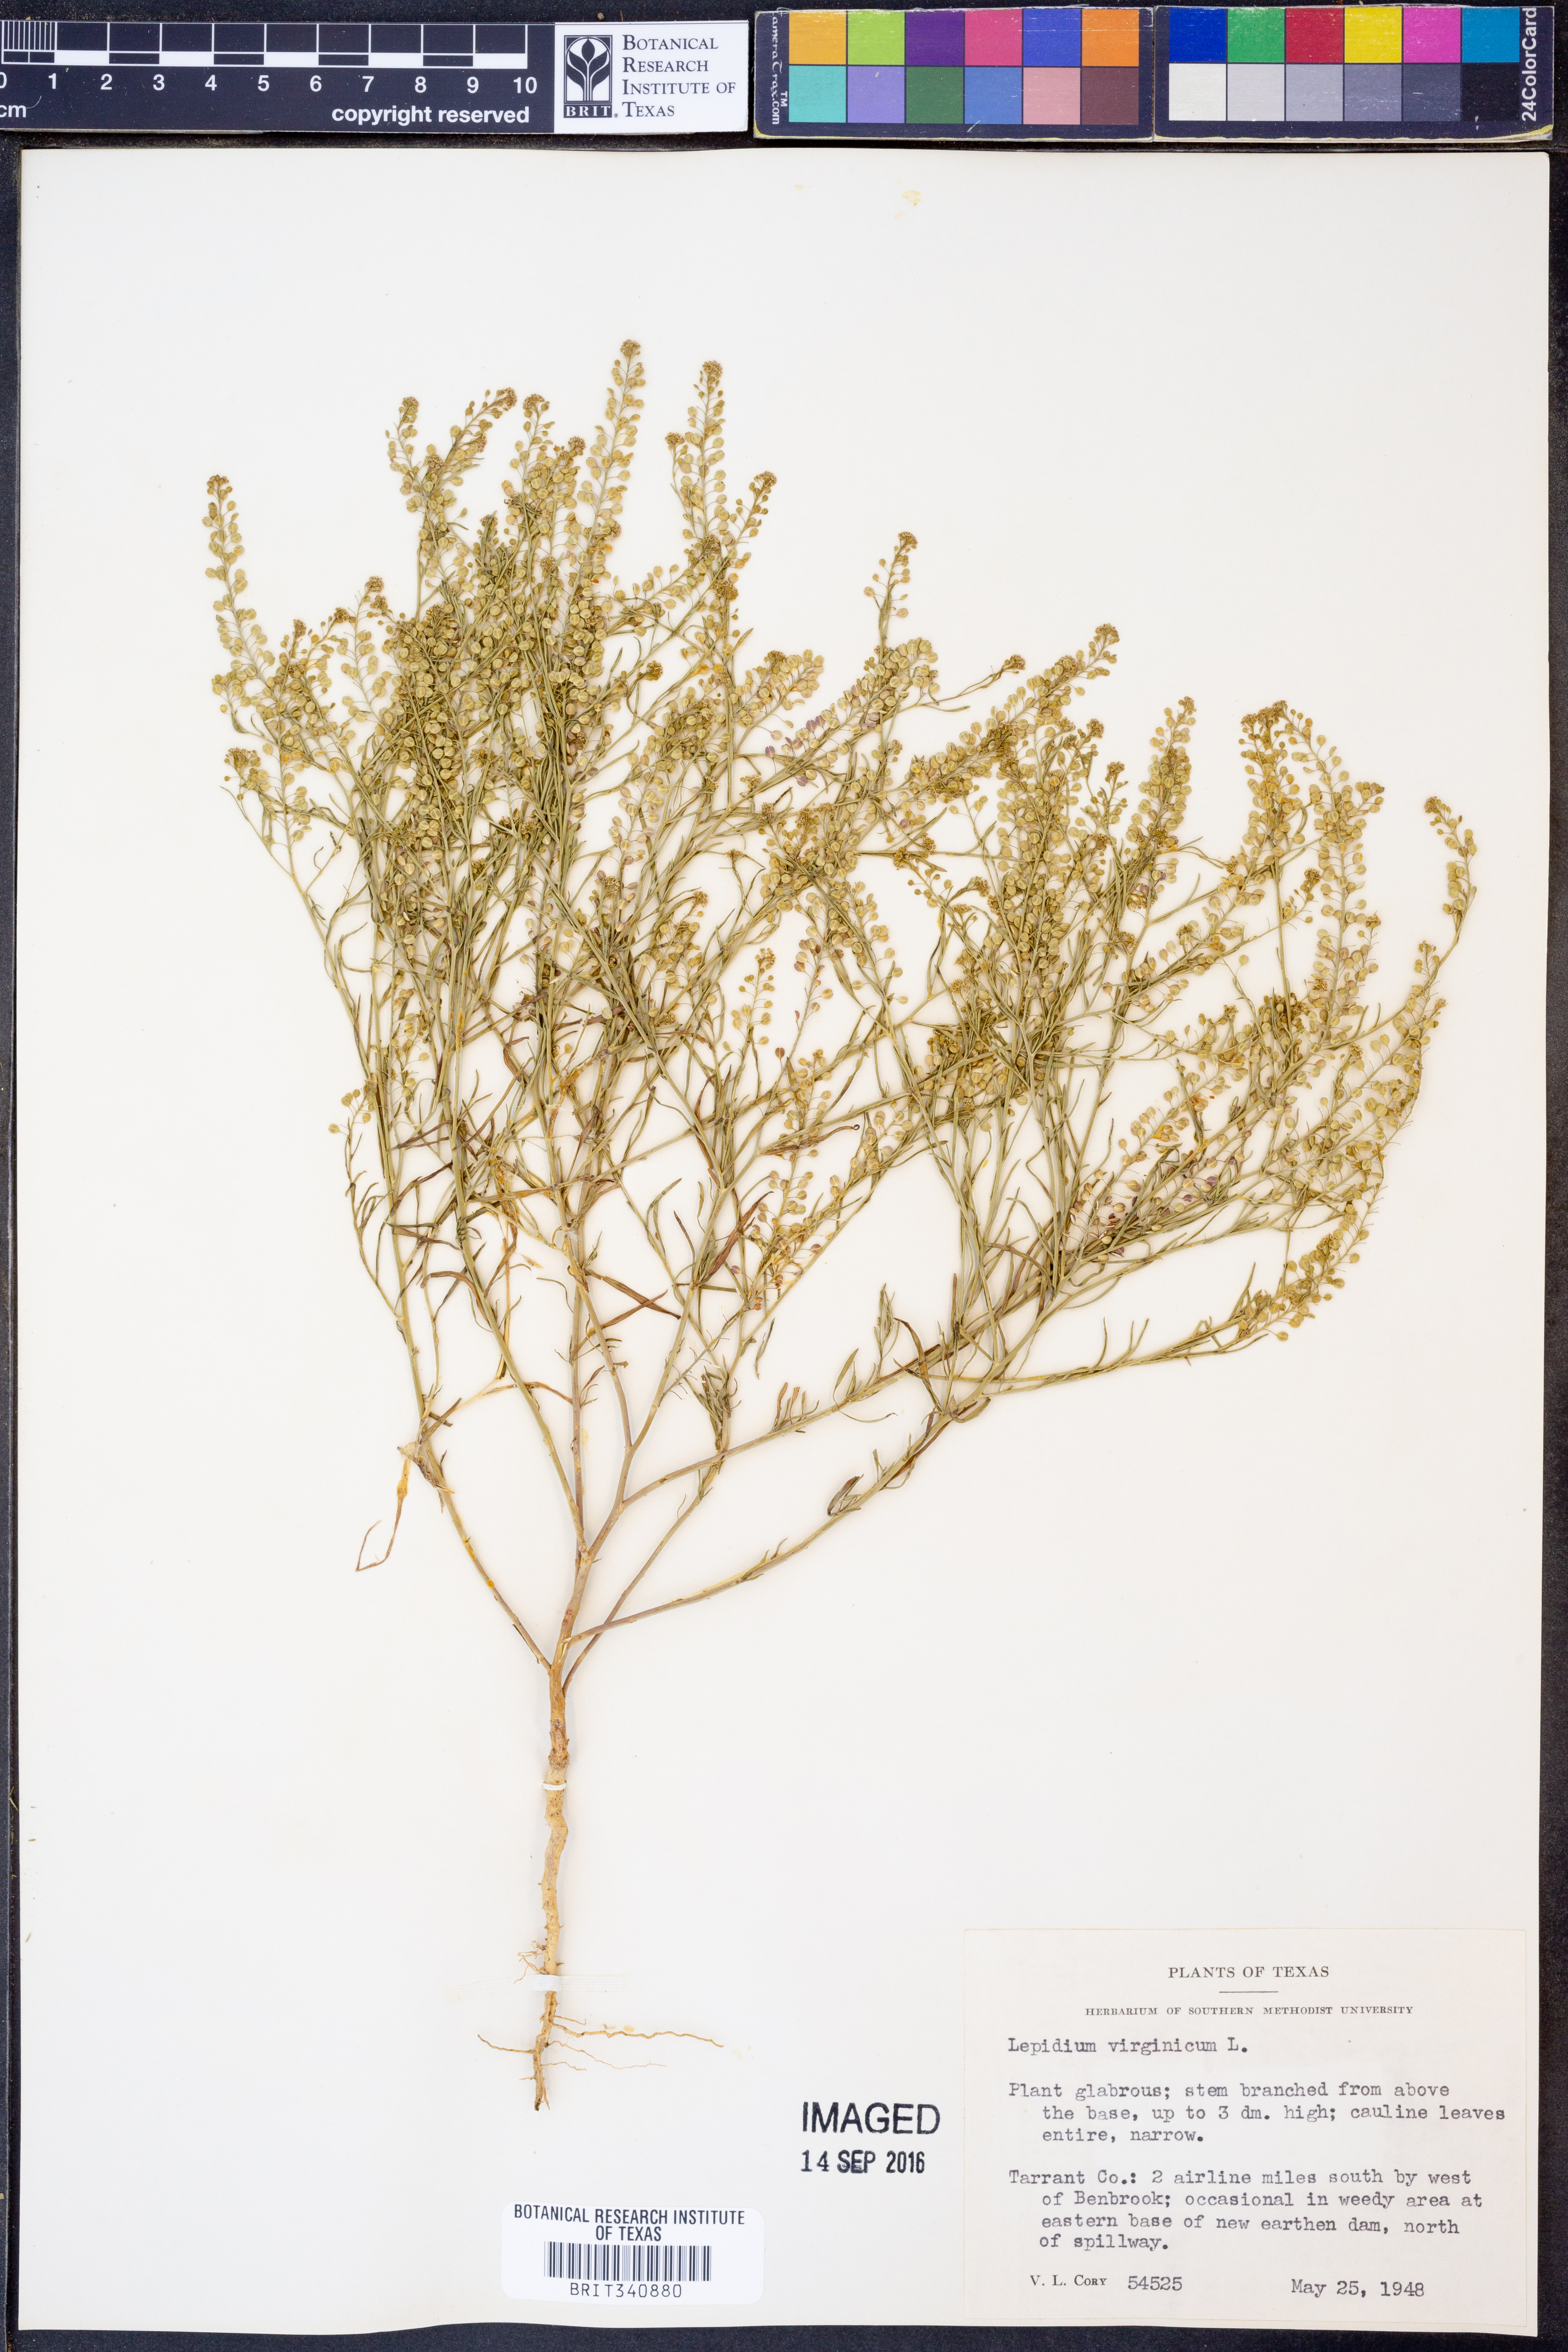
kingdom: Plantae
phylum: Tracheophyta
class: Magnoliopsida
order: Brassicales
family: Brassicaceae
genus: Lepidium
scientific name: Lepidium virginicum
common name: Least pepperwort
